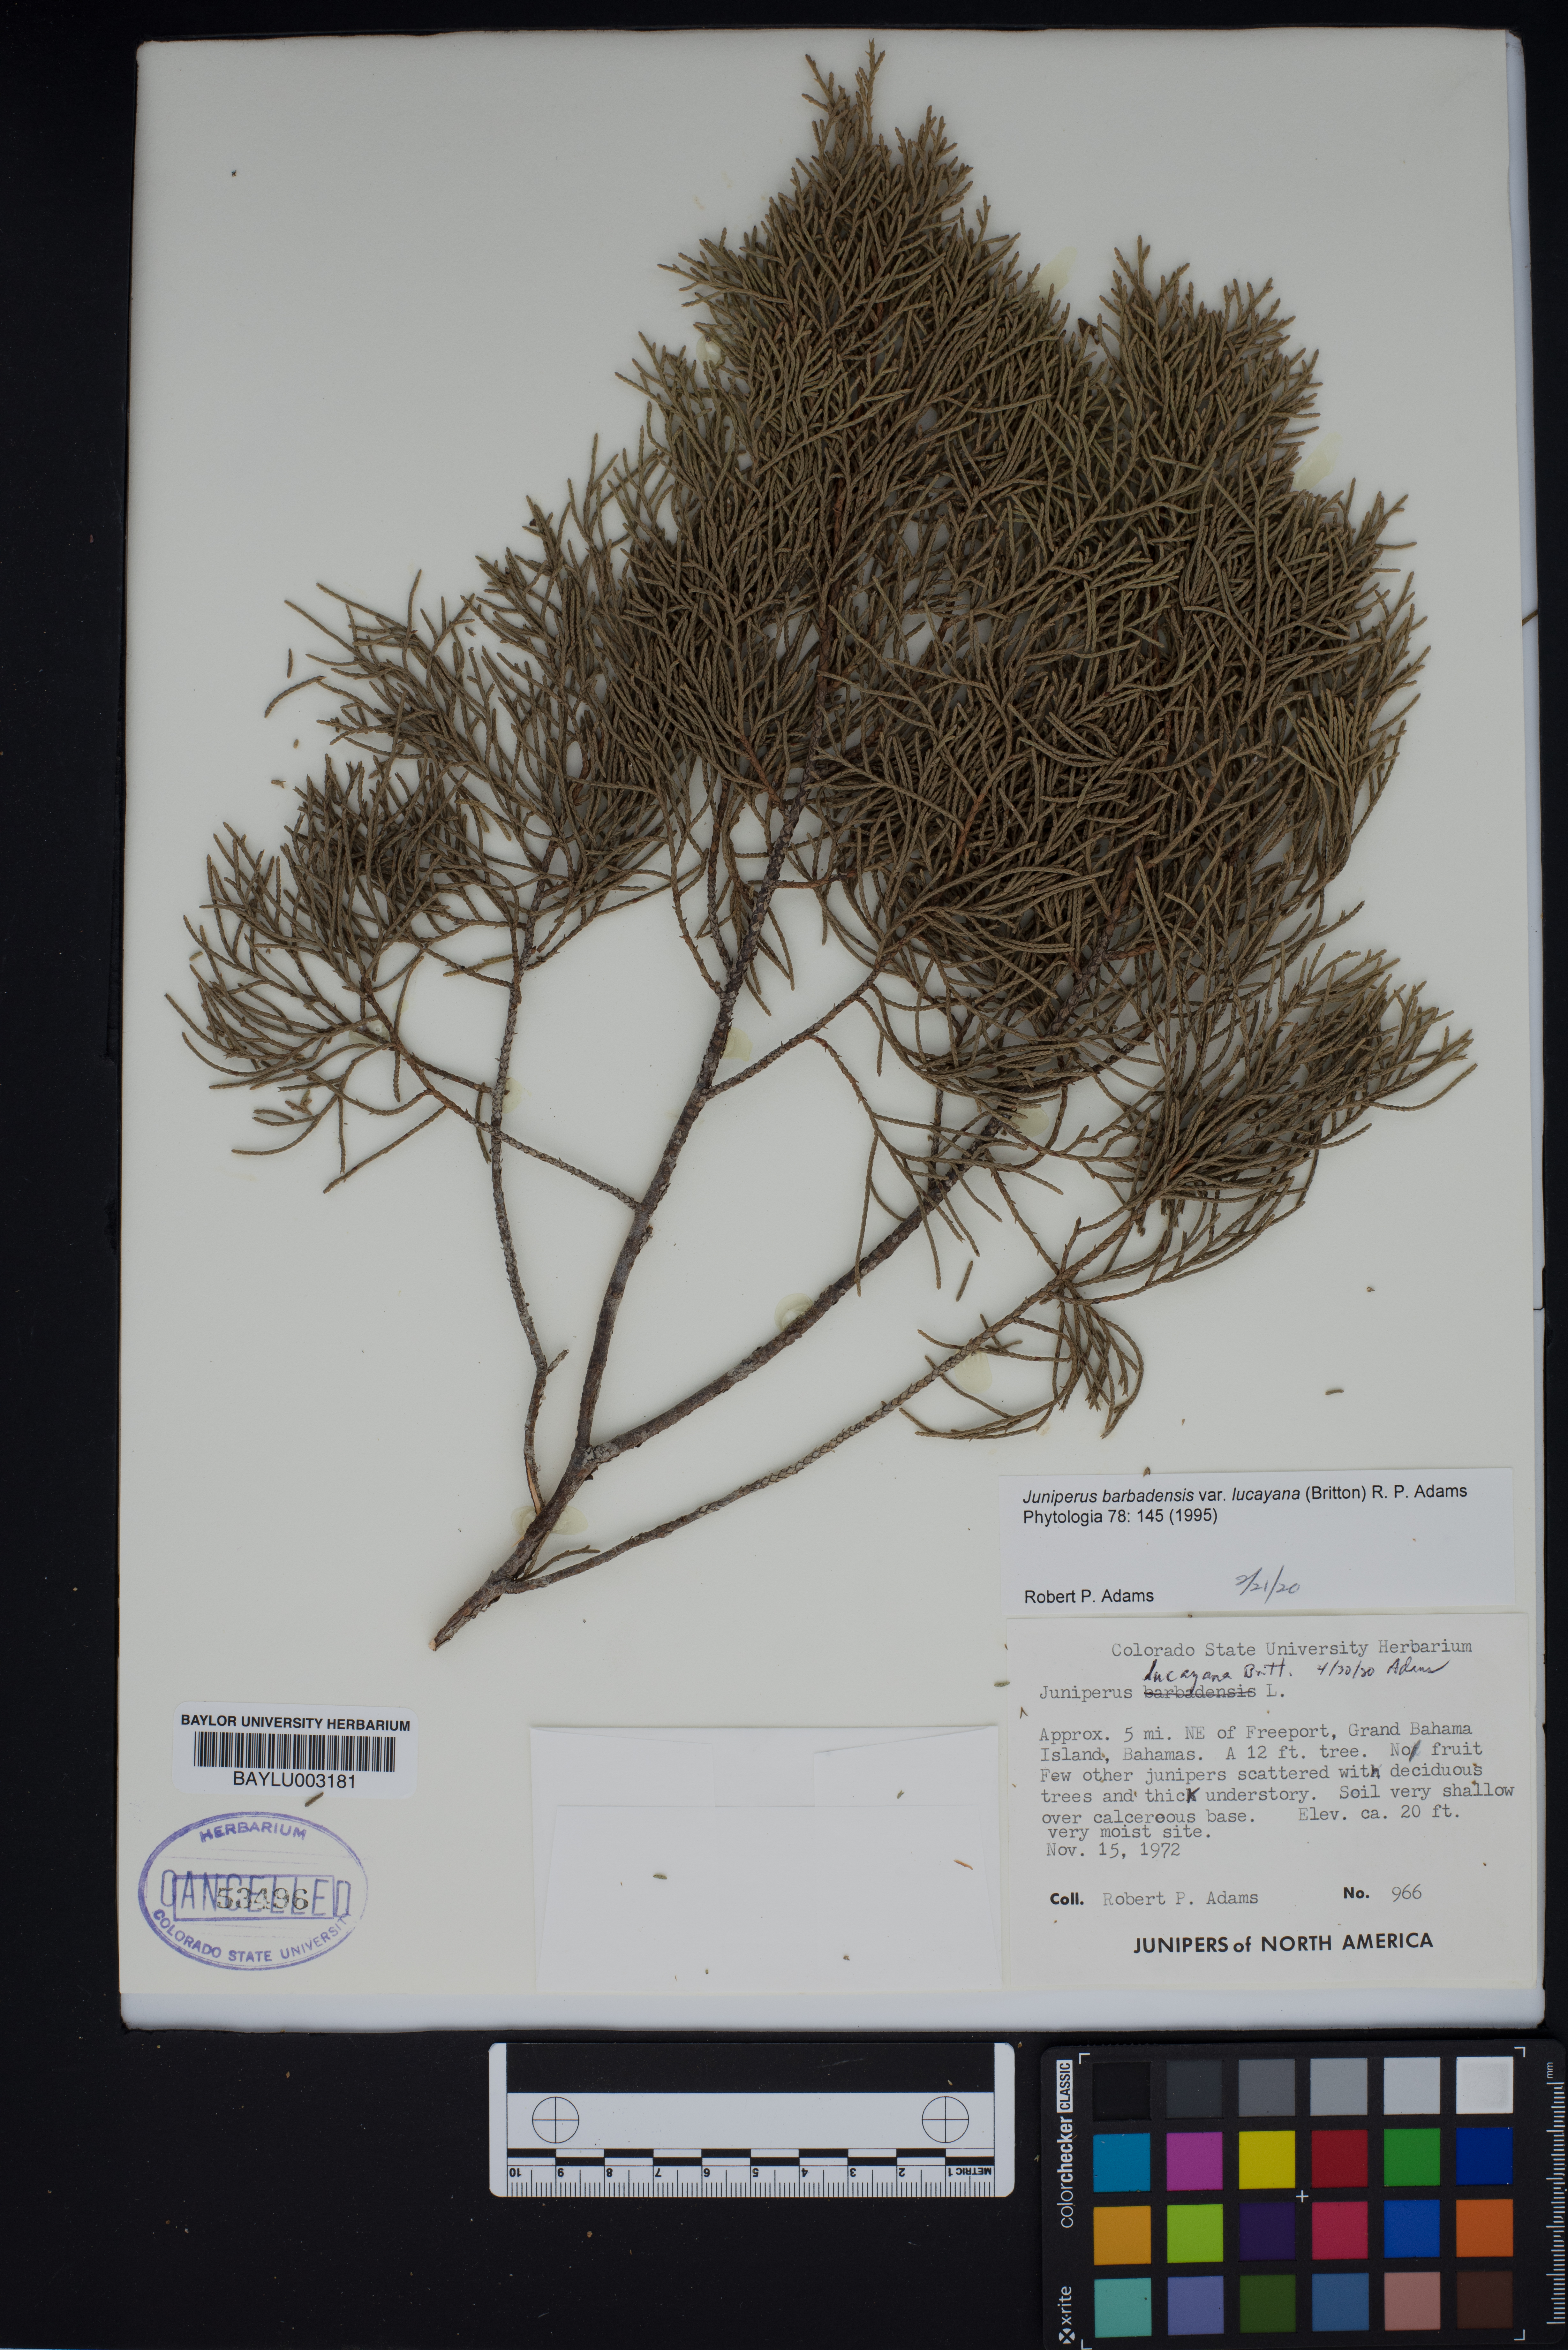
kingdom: Plantae
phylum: Tracheophyta
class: Pinopsida
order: Pinales
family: Cupressaceae
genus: Juniperus
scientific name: Juniperus barbadensis
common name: West indies juniper
